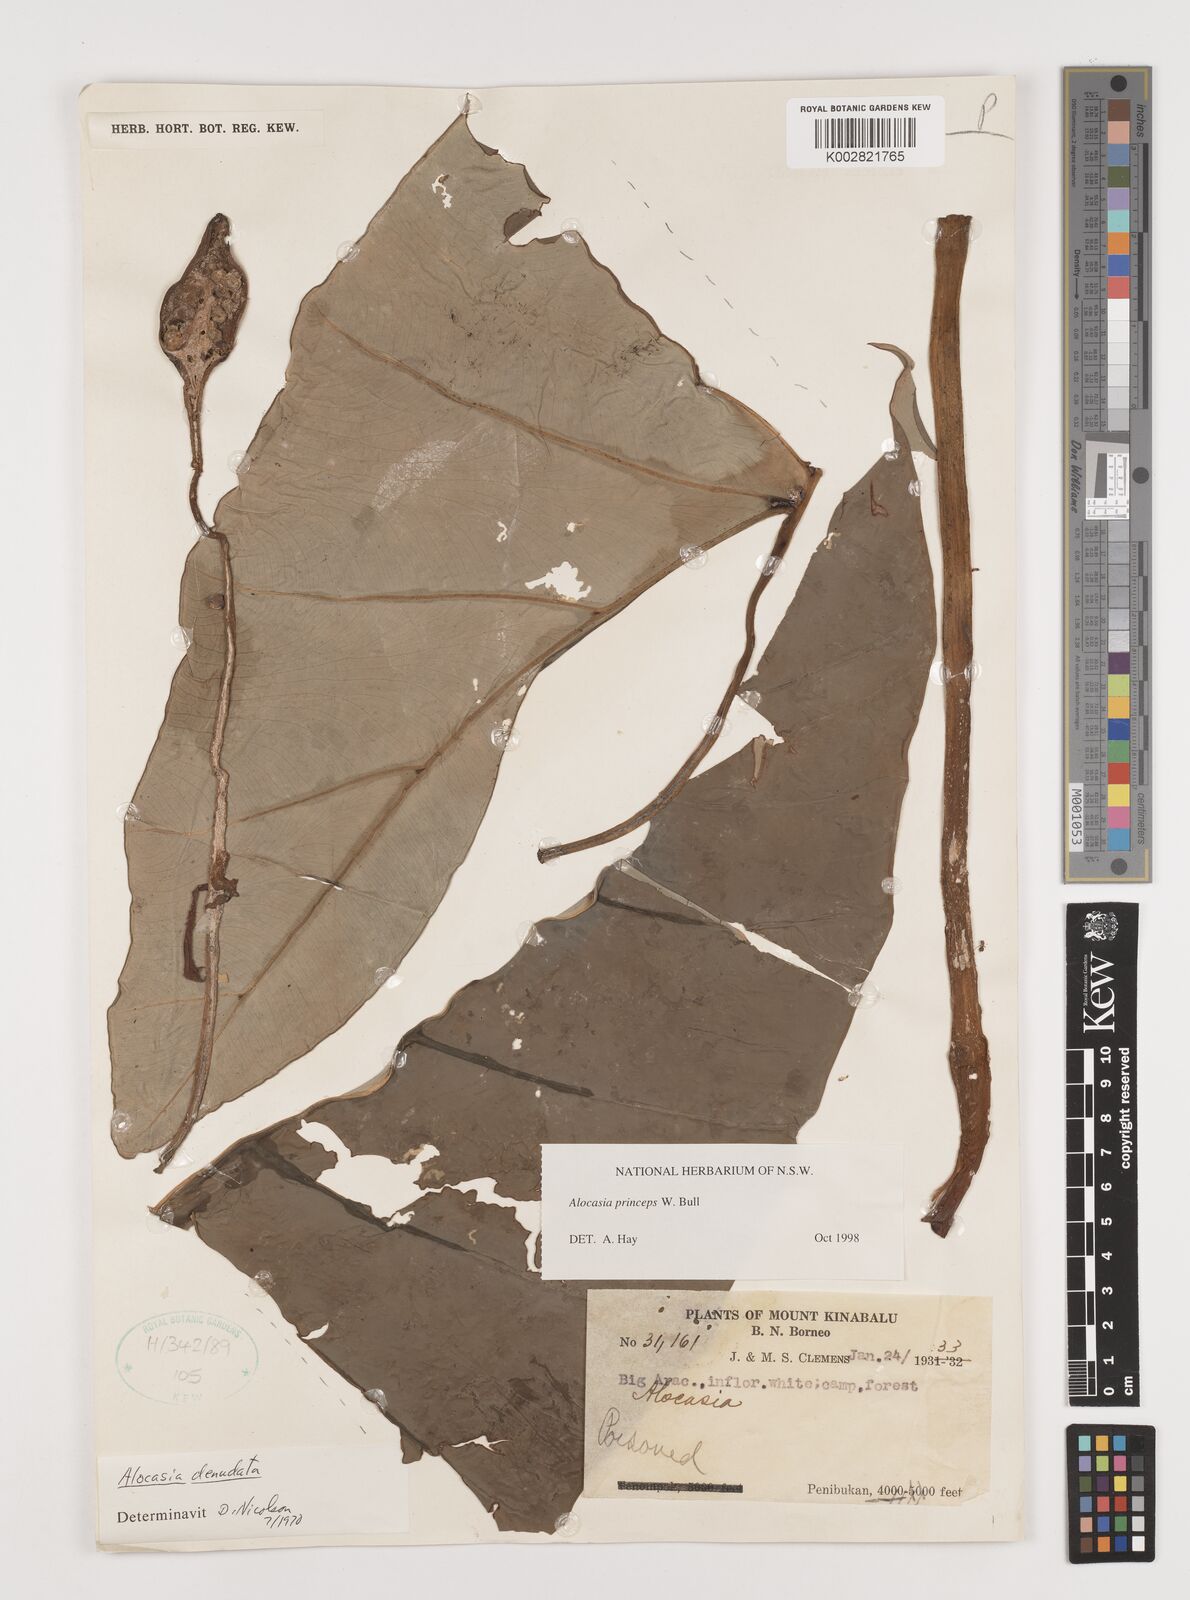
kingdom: Plantae
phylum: Tracheophyta
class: Liliopsida
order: Alismatales
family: Araceae
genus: Alocasia
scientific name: Alocasia princeps
